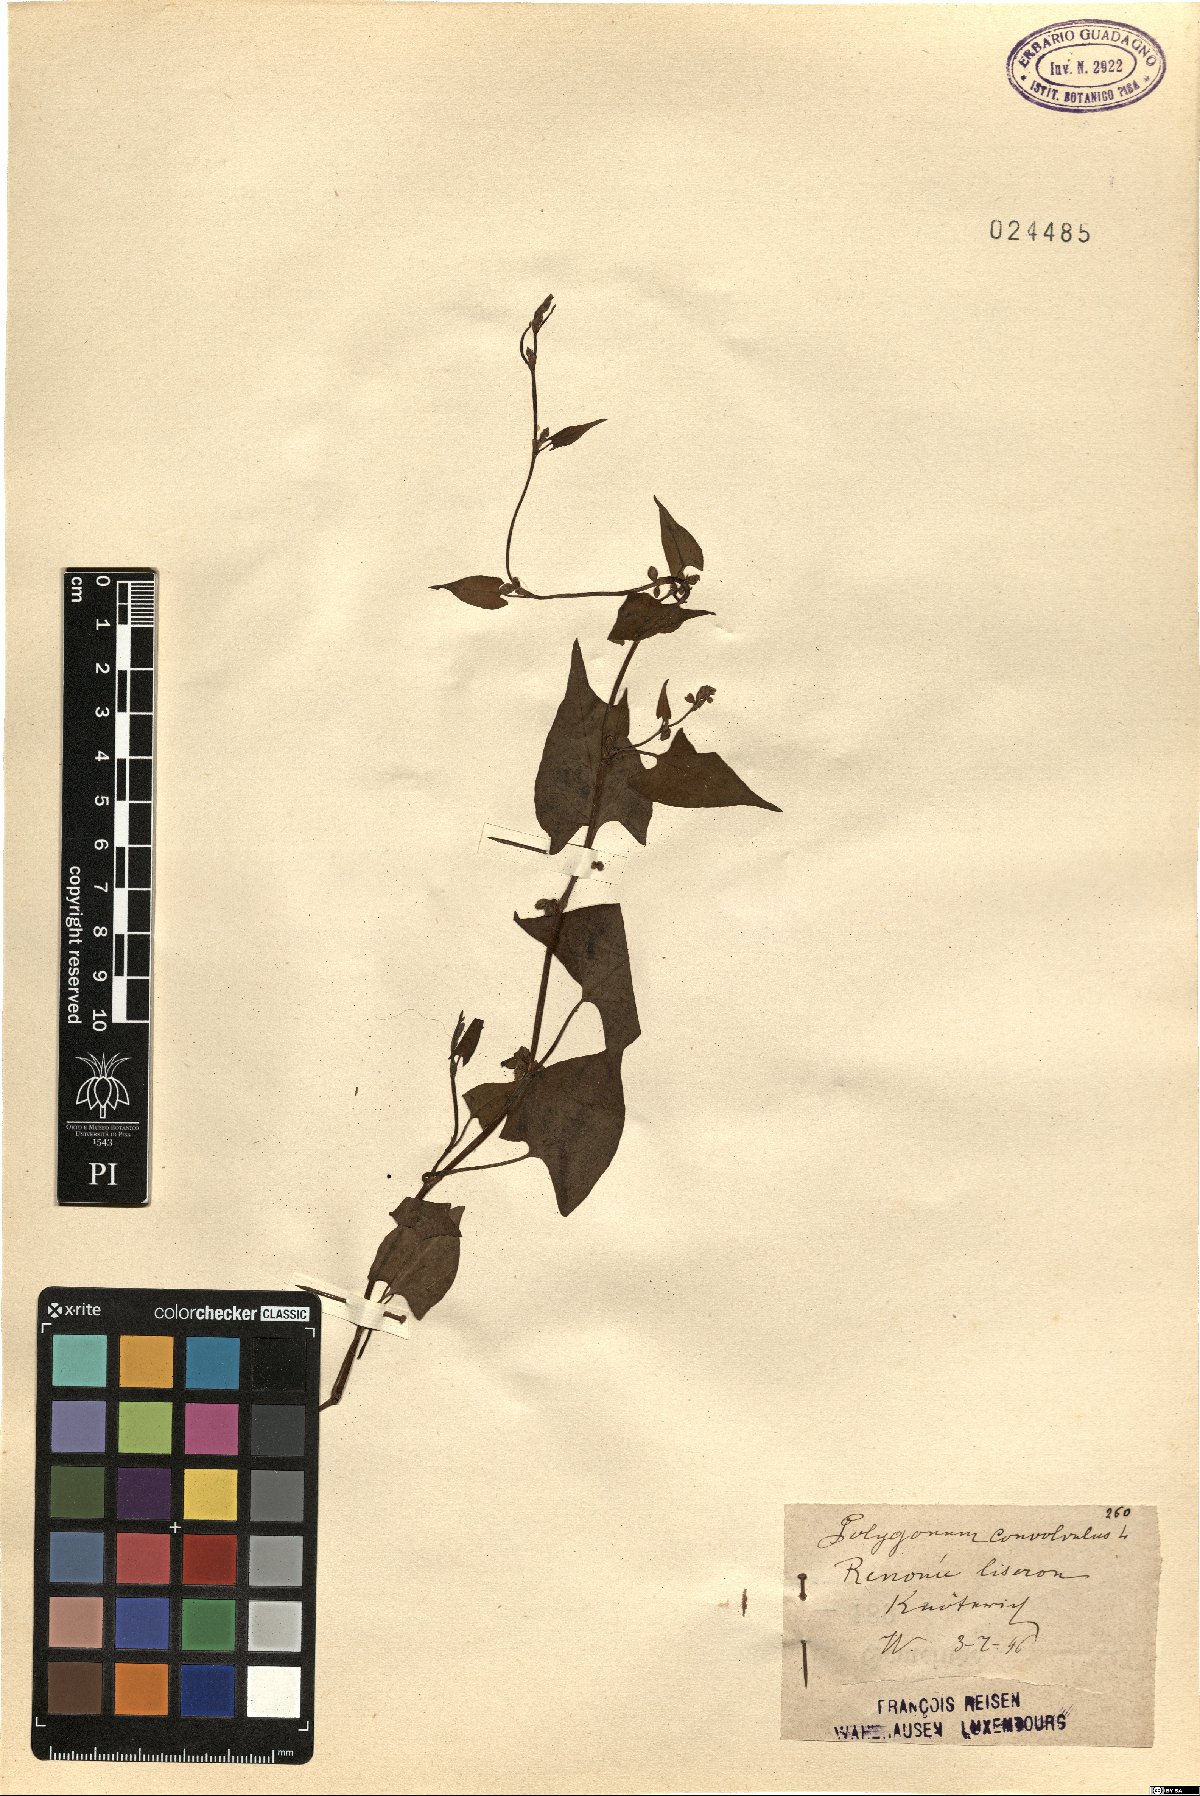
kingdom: Plantae
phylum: Tracheophyta
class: Magnoliopsida
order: Caryophyllales
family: Polygonaceae
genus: Fallopia
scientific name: Fallopia convolvulus
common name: Black bindweed
